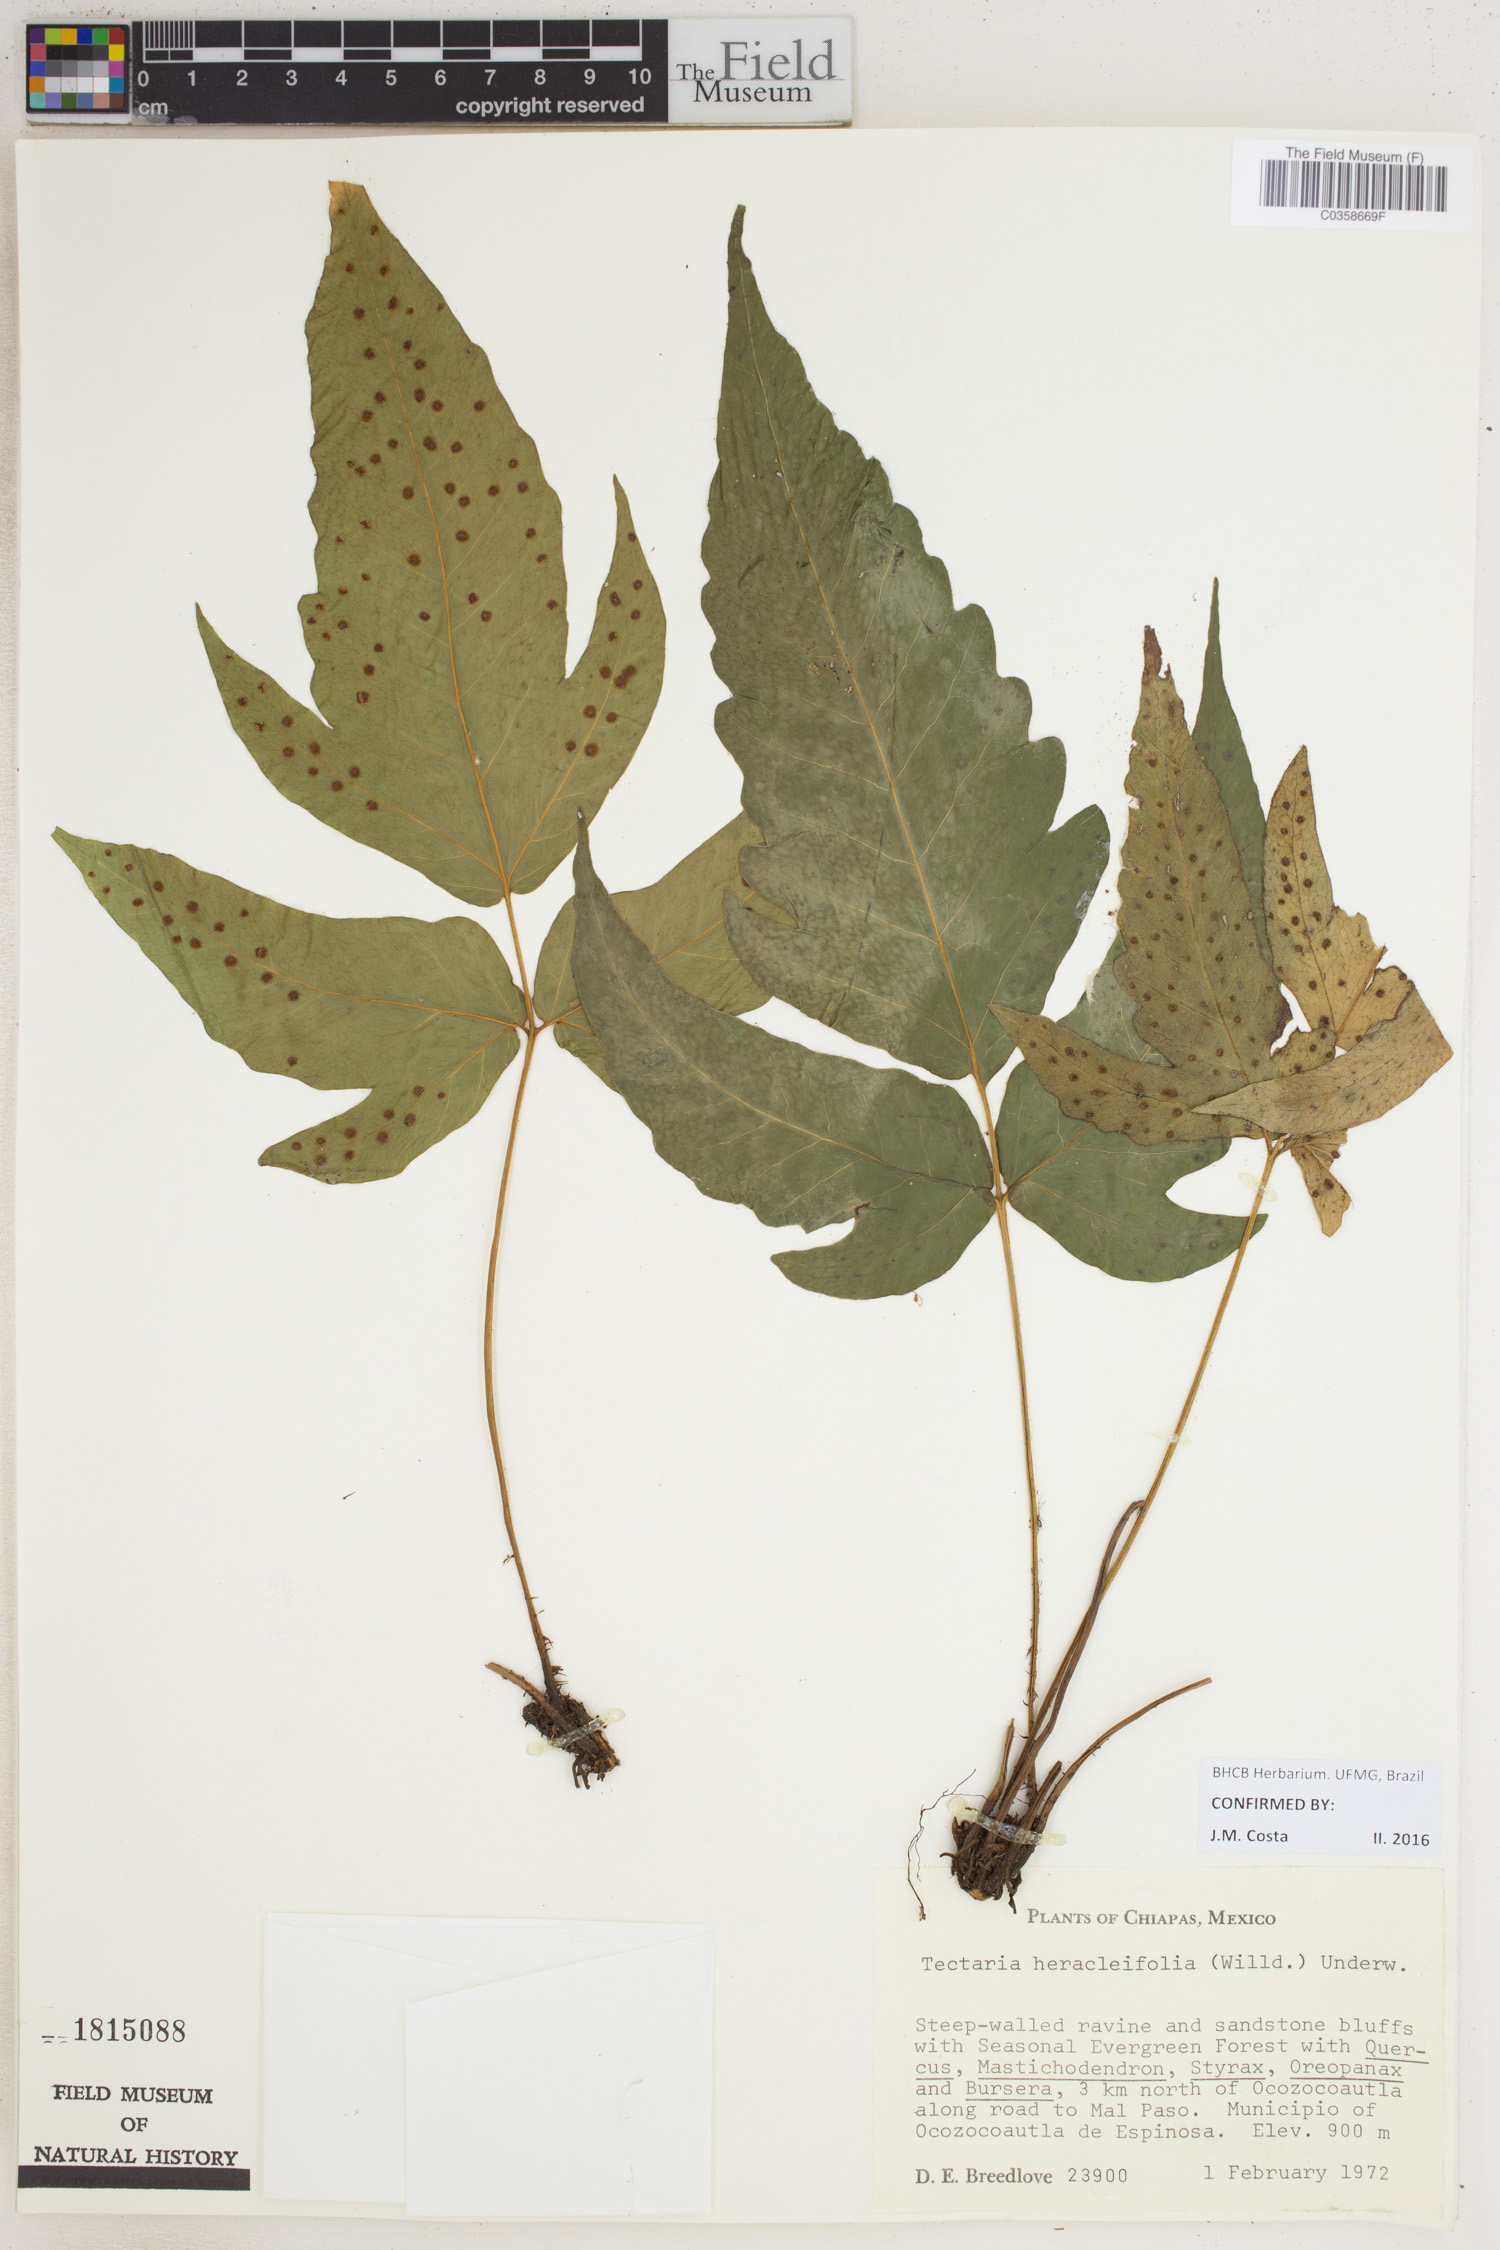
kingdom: Plantae
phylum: Tracheophyta
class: Polypodiopsida
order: Polypodiales
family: Tectariaceae
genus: Tectaria
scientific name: Tectaria heracleifolia
